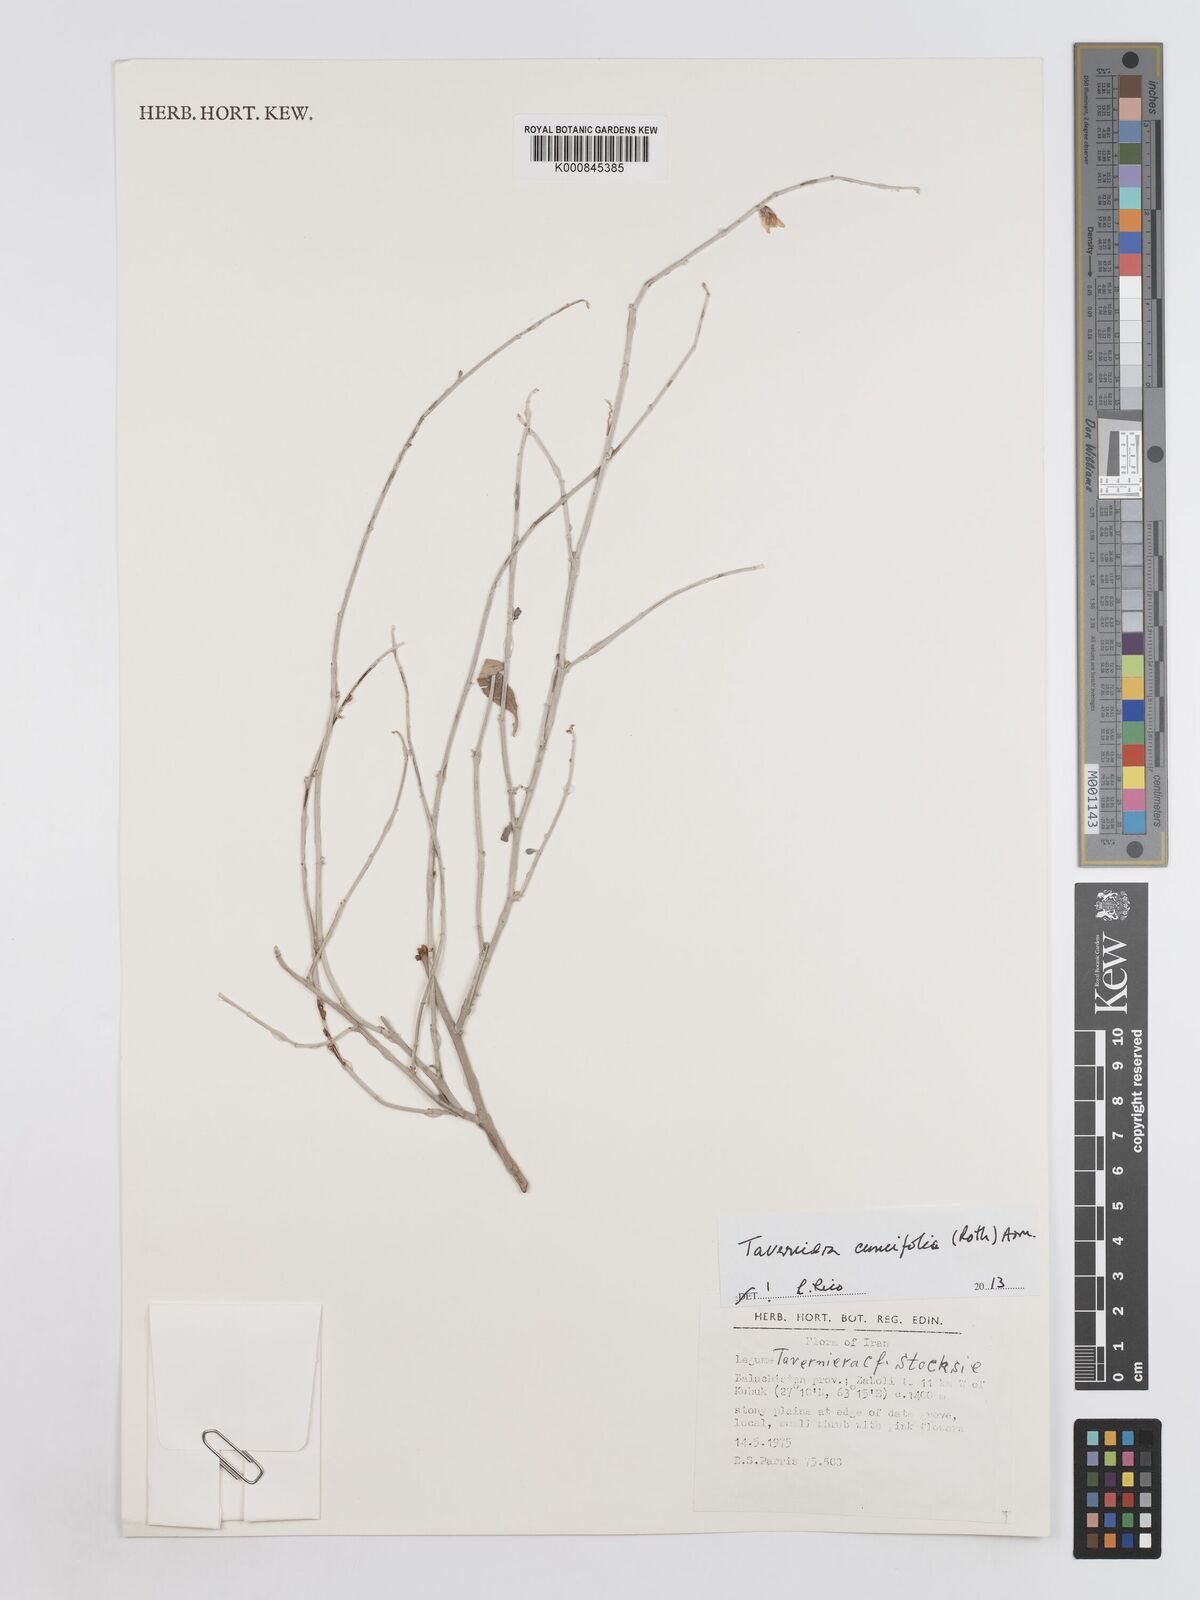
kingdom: Plantae
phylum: Tracheophyta
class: Magnoliopsida
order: Fabales
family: Fabaceae
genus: Taverniera
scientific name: Taverniera cuneifolia
